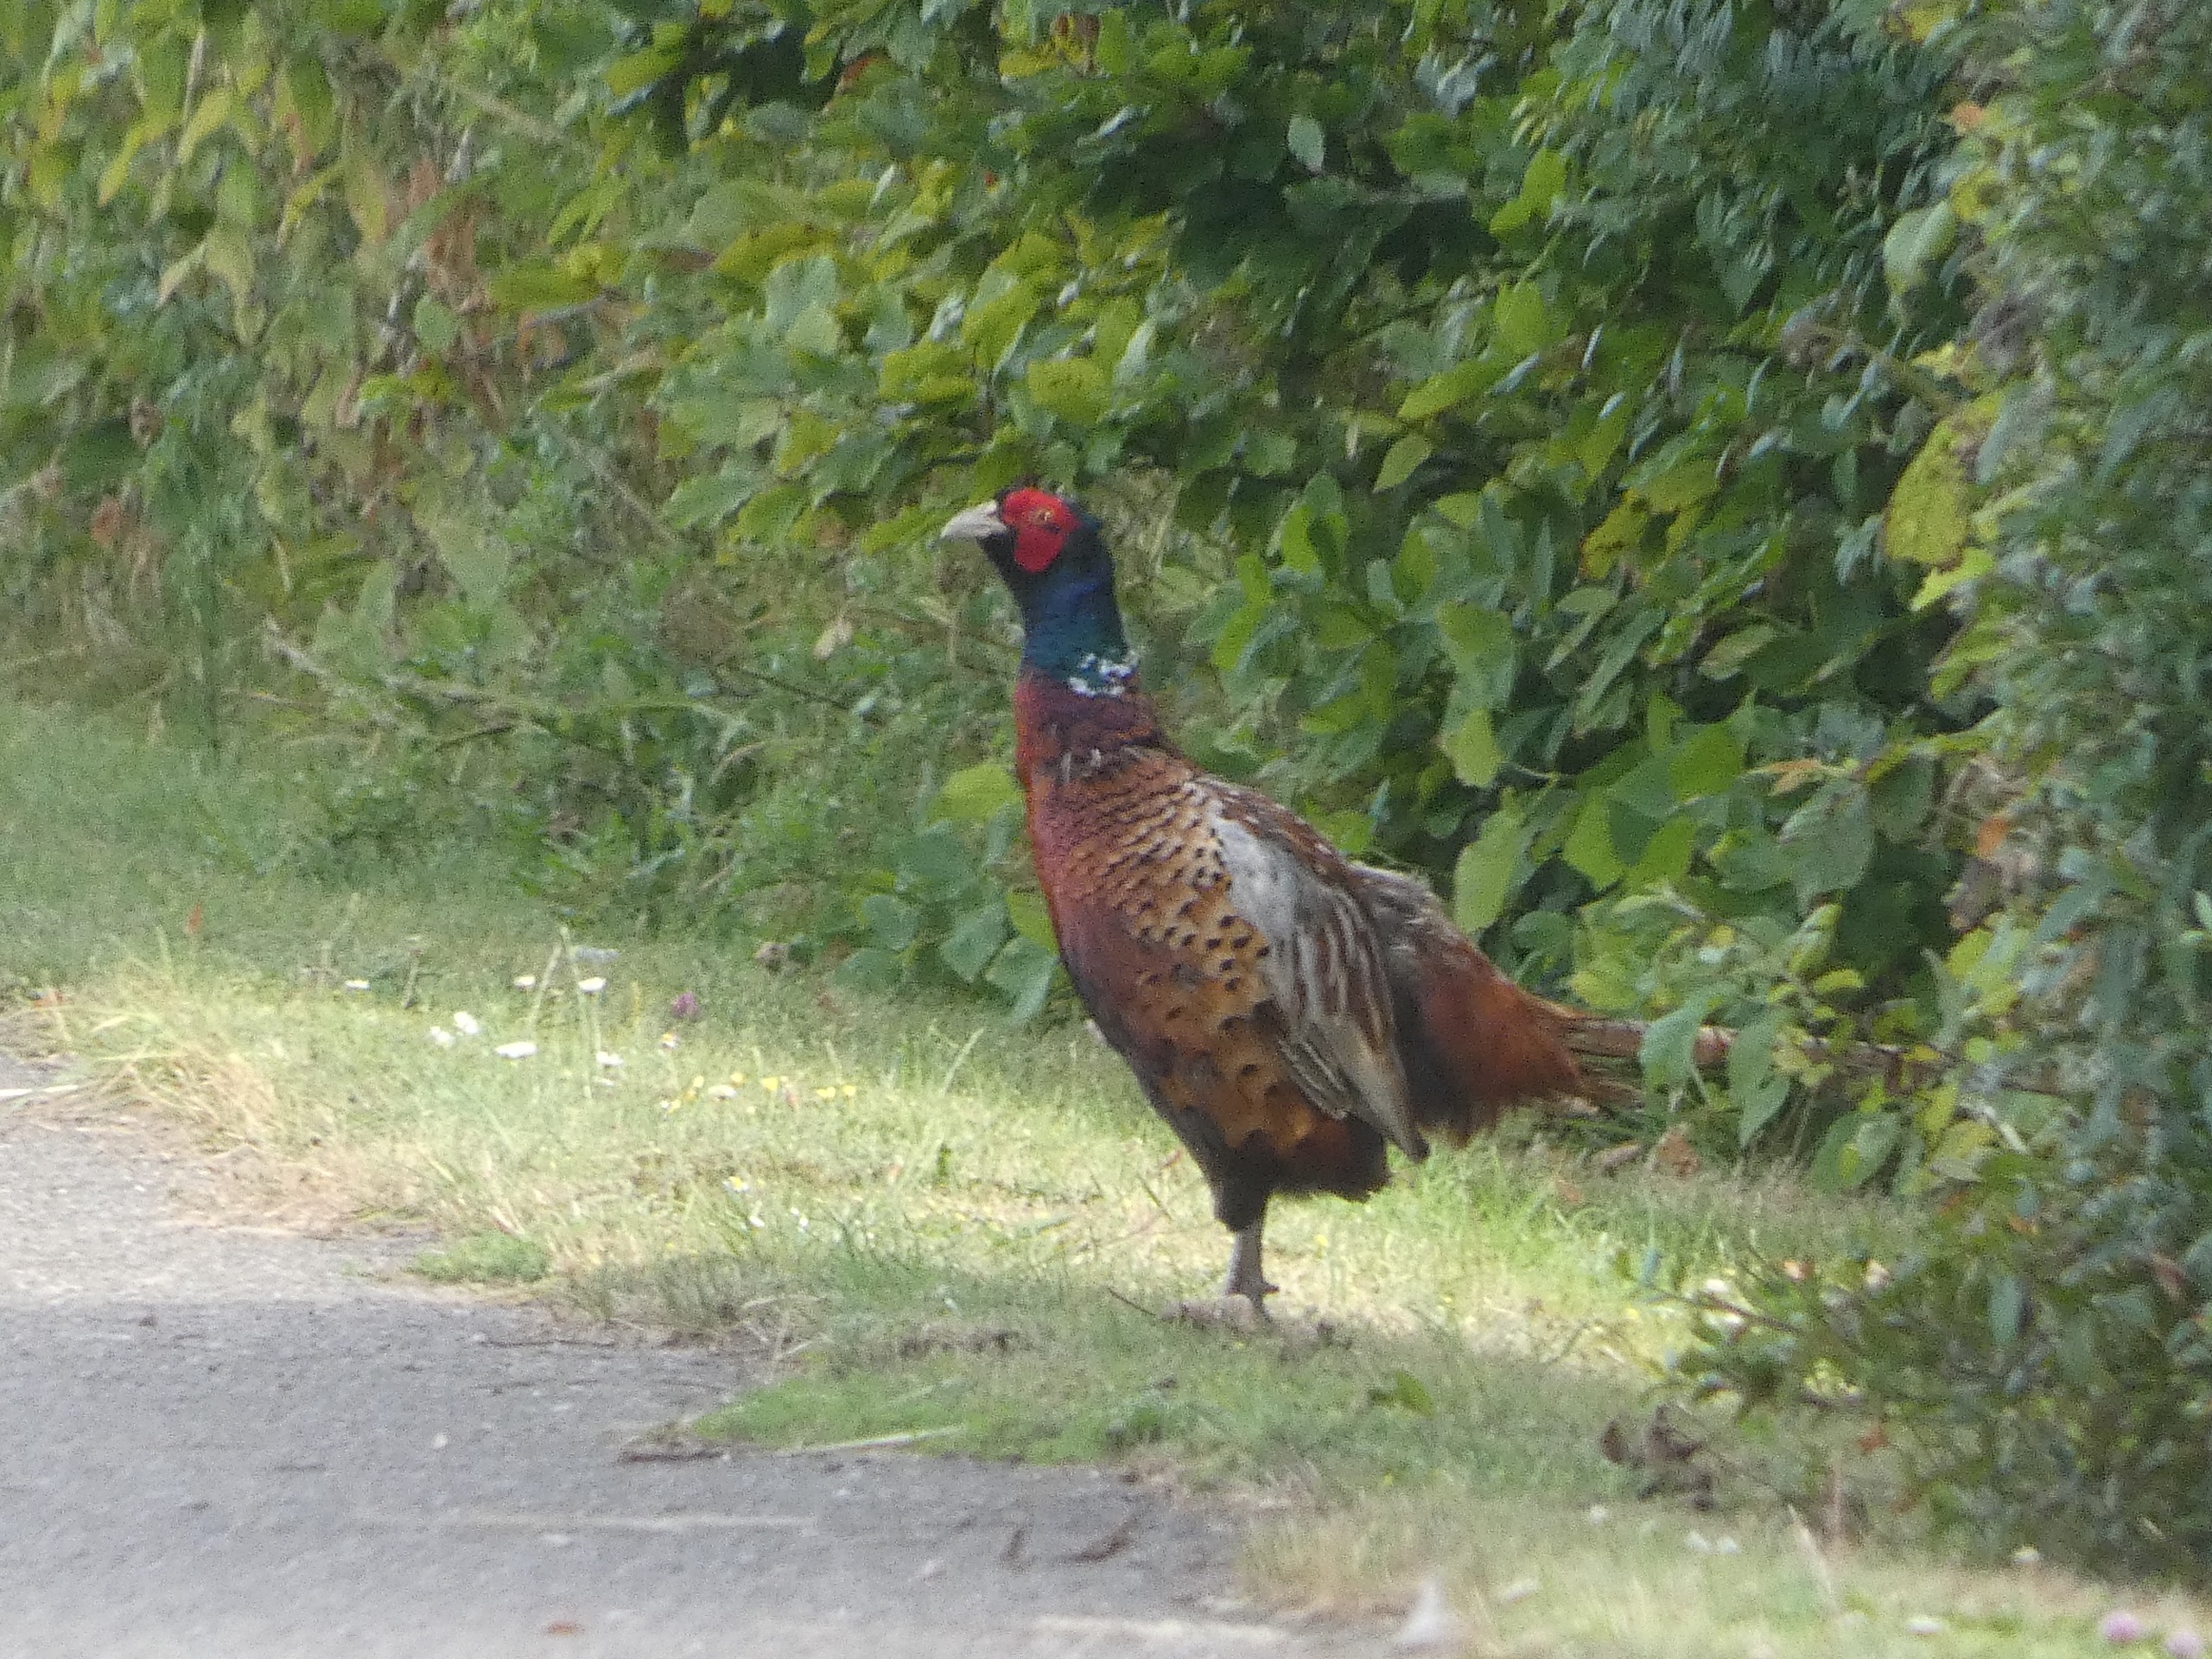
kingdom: Animalia
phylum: Chordata
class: Aves
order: Galliformes
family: Phasianidae
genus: Phasianus
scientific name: Phasianus colchicus
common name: Fasan
